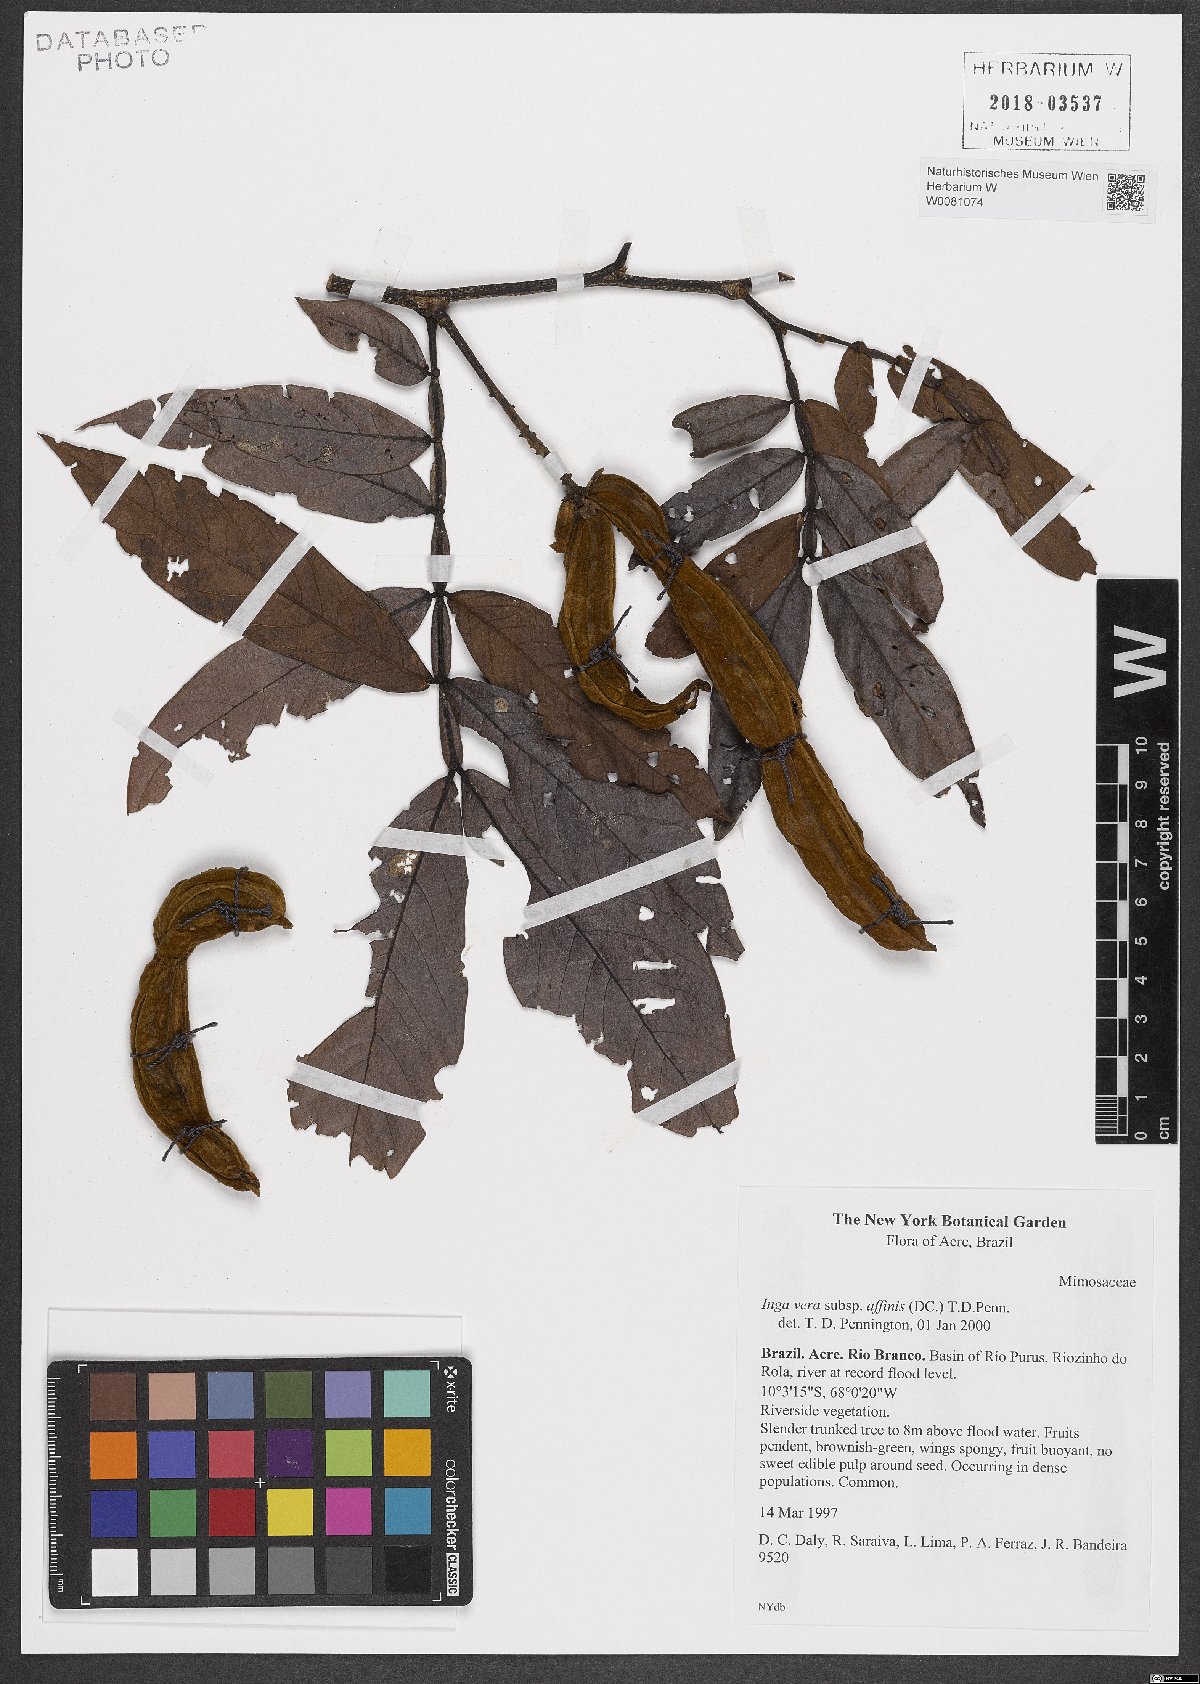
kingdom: Plantae
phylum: Tracheophyta
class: Magnoliopsida
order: Fabales
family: Fabaceae
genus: Inga
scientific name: Inga affinis
